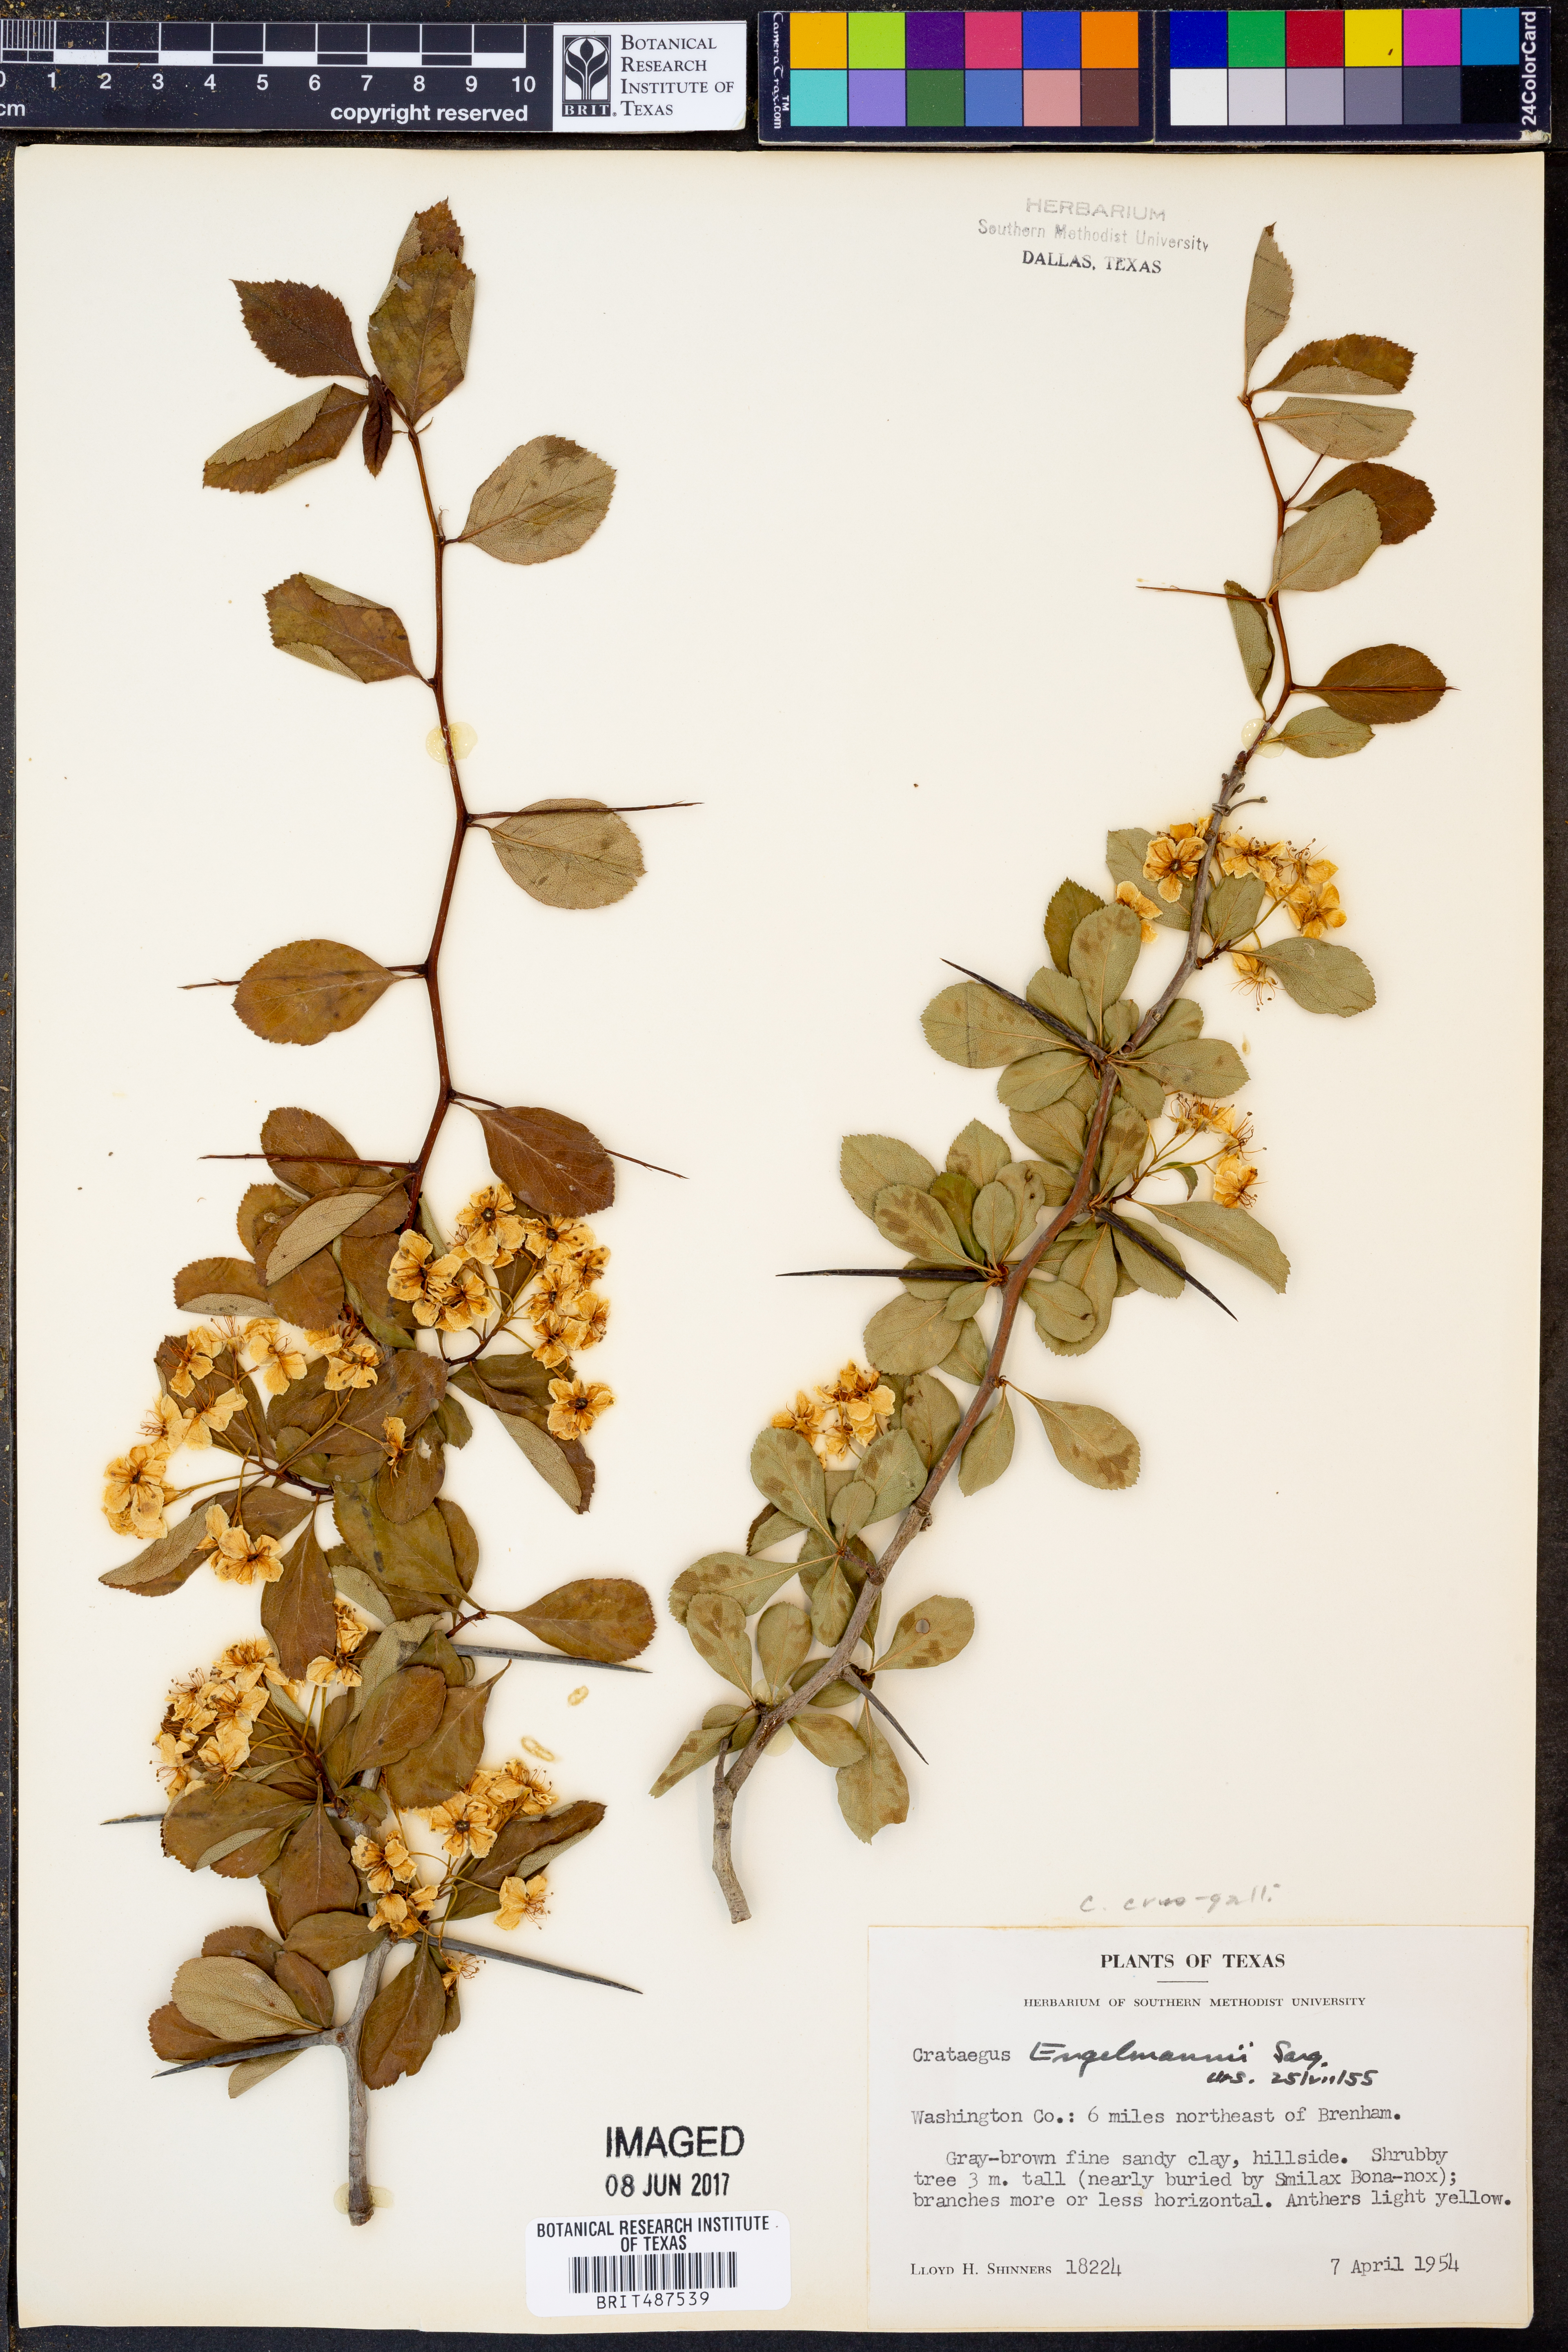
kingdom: Plantae
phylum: Tracheophyta
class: Magnoliopsida
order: Rosales
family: Rosaceae
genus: Crataegus
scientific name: Crataegus berberifolia
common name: Barberry hawthorn
